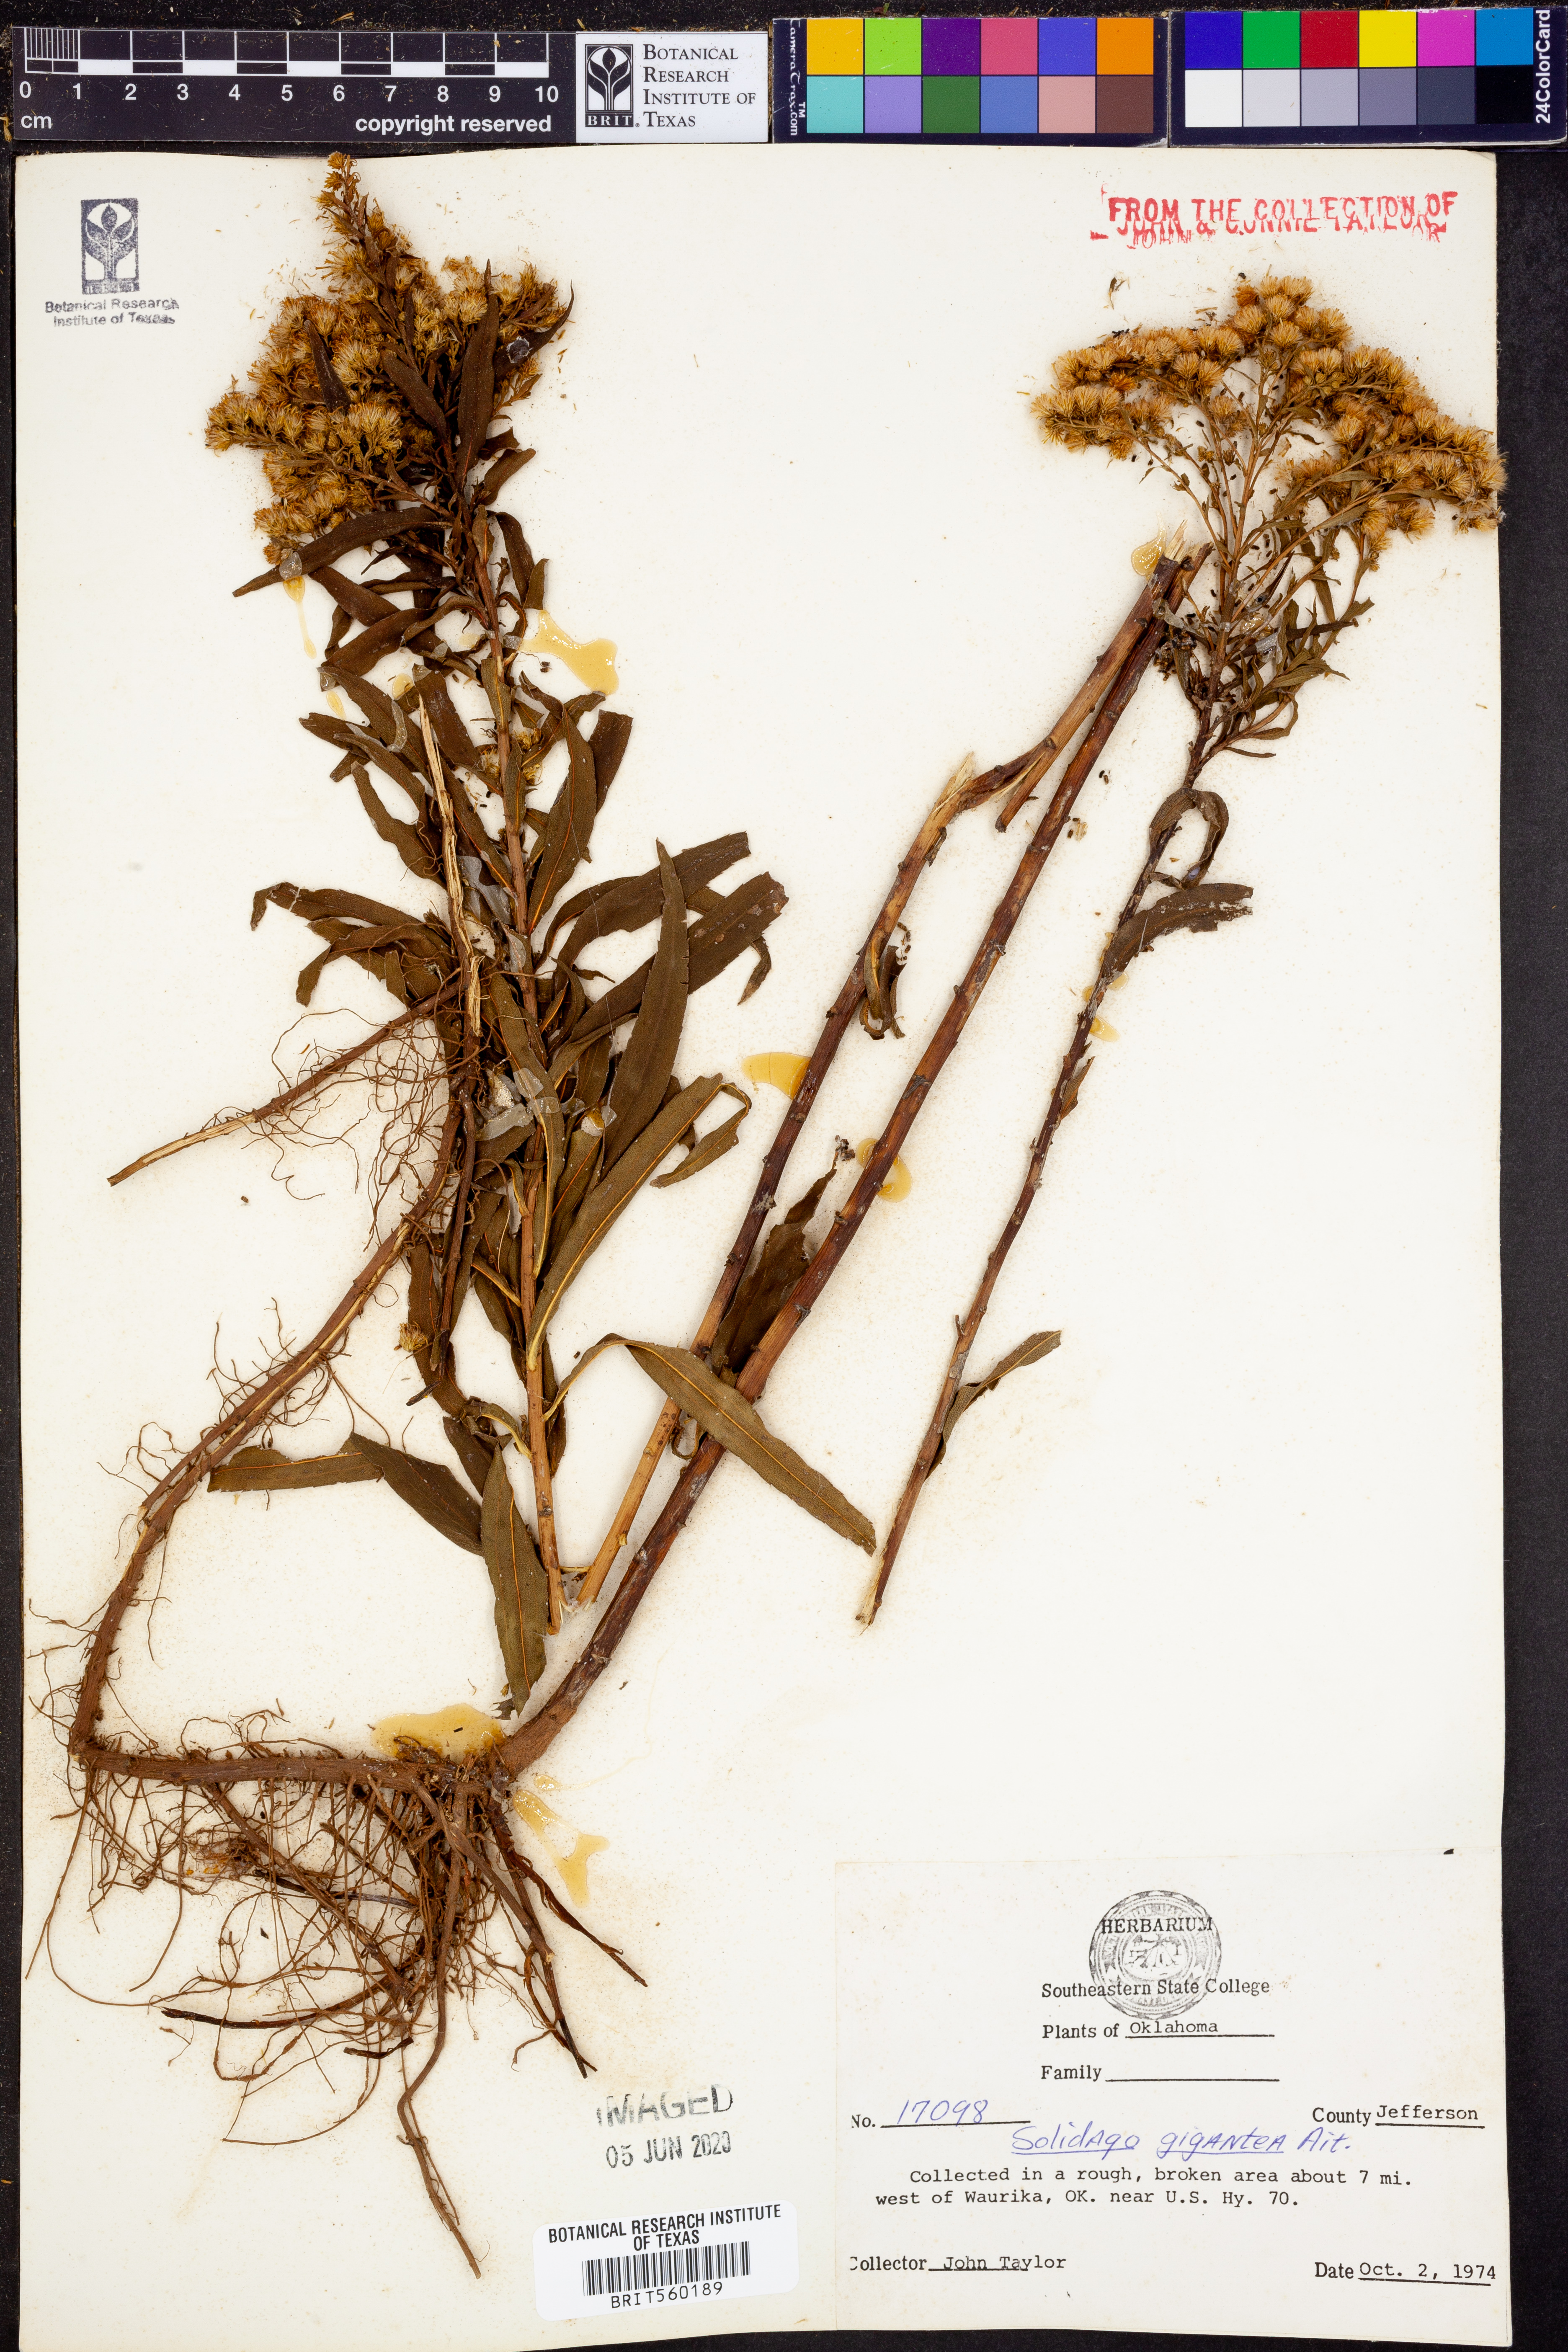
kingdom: Plantae
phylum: Tracheophyta
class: Magnoliopsida
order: Asterales
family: Asteraceae
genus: Solidago
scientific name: Solidago gigantea
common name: Giant goldenrod
